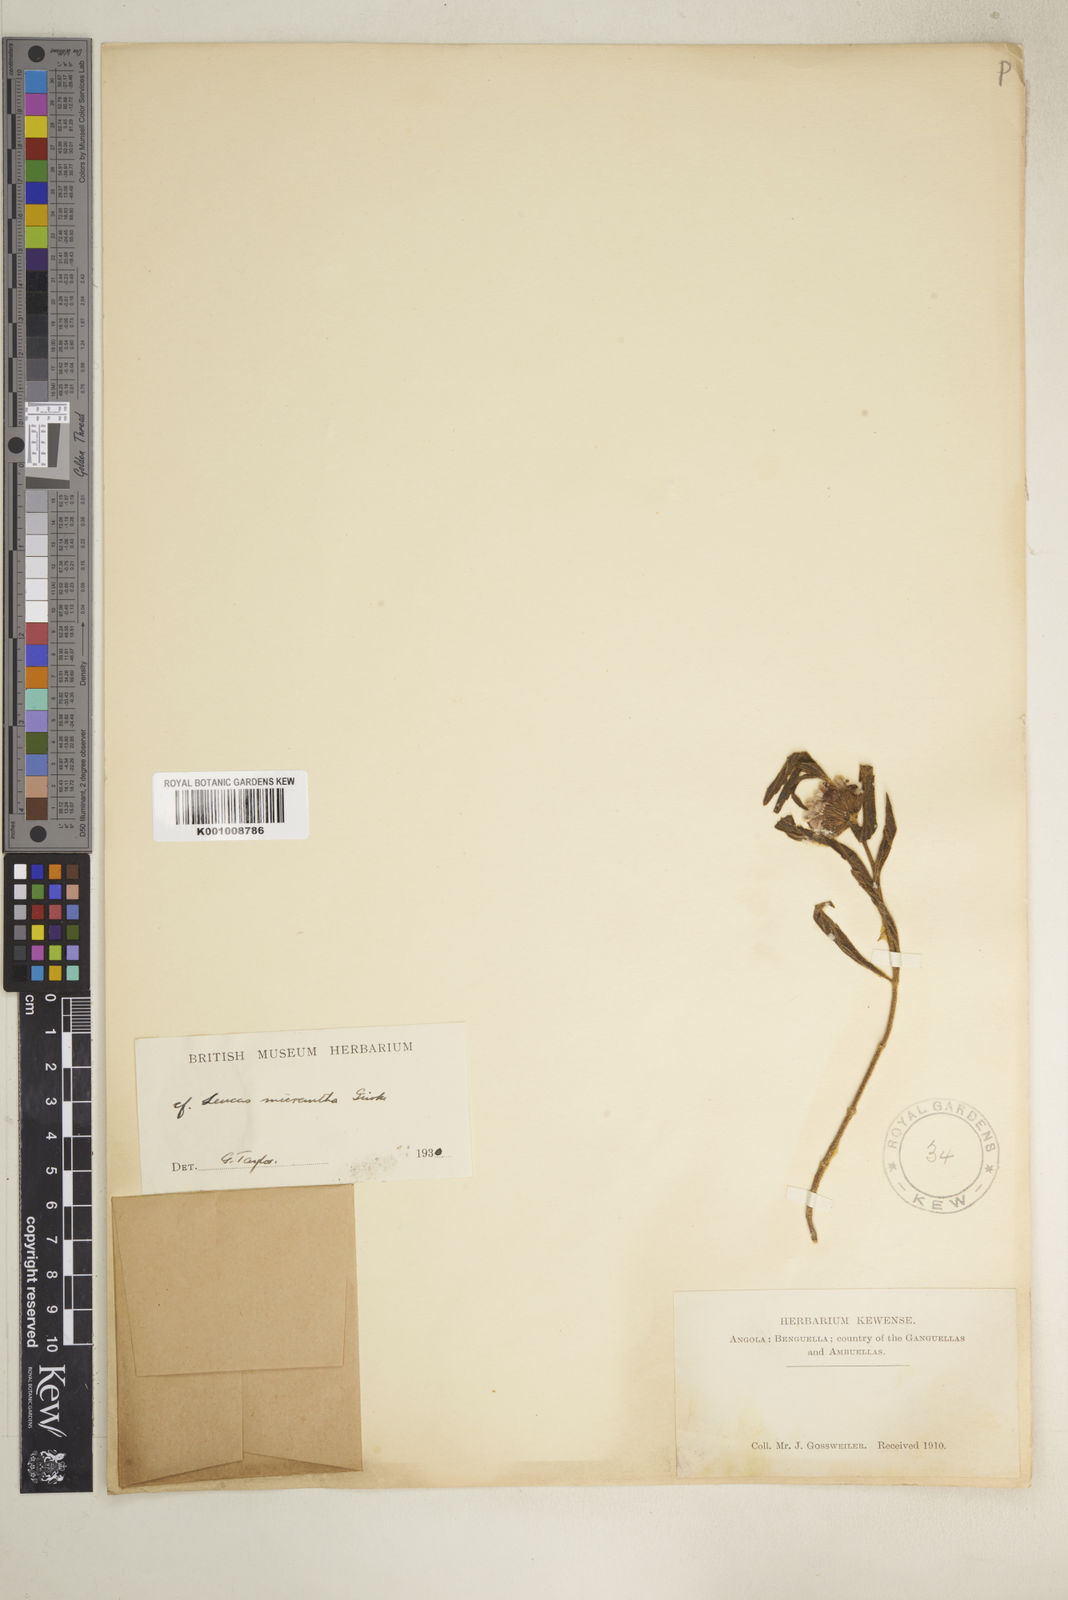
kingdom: Plantae
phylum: Tracheophyta
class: Magnoliopsida
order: Lamiales
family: Lamiaceae
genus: Leucas
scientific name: Leucas
